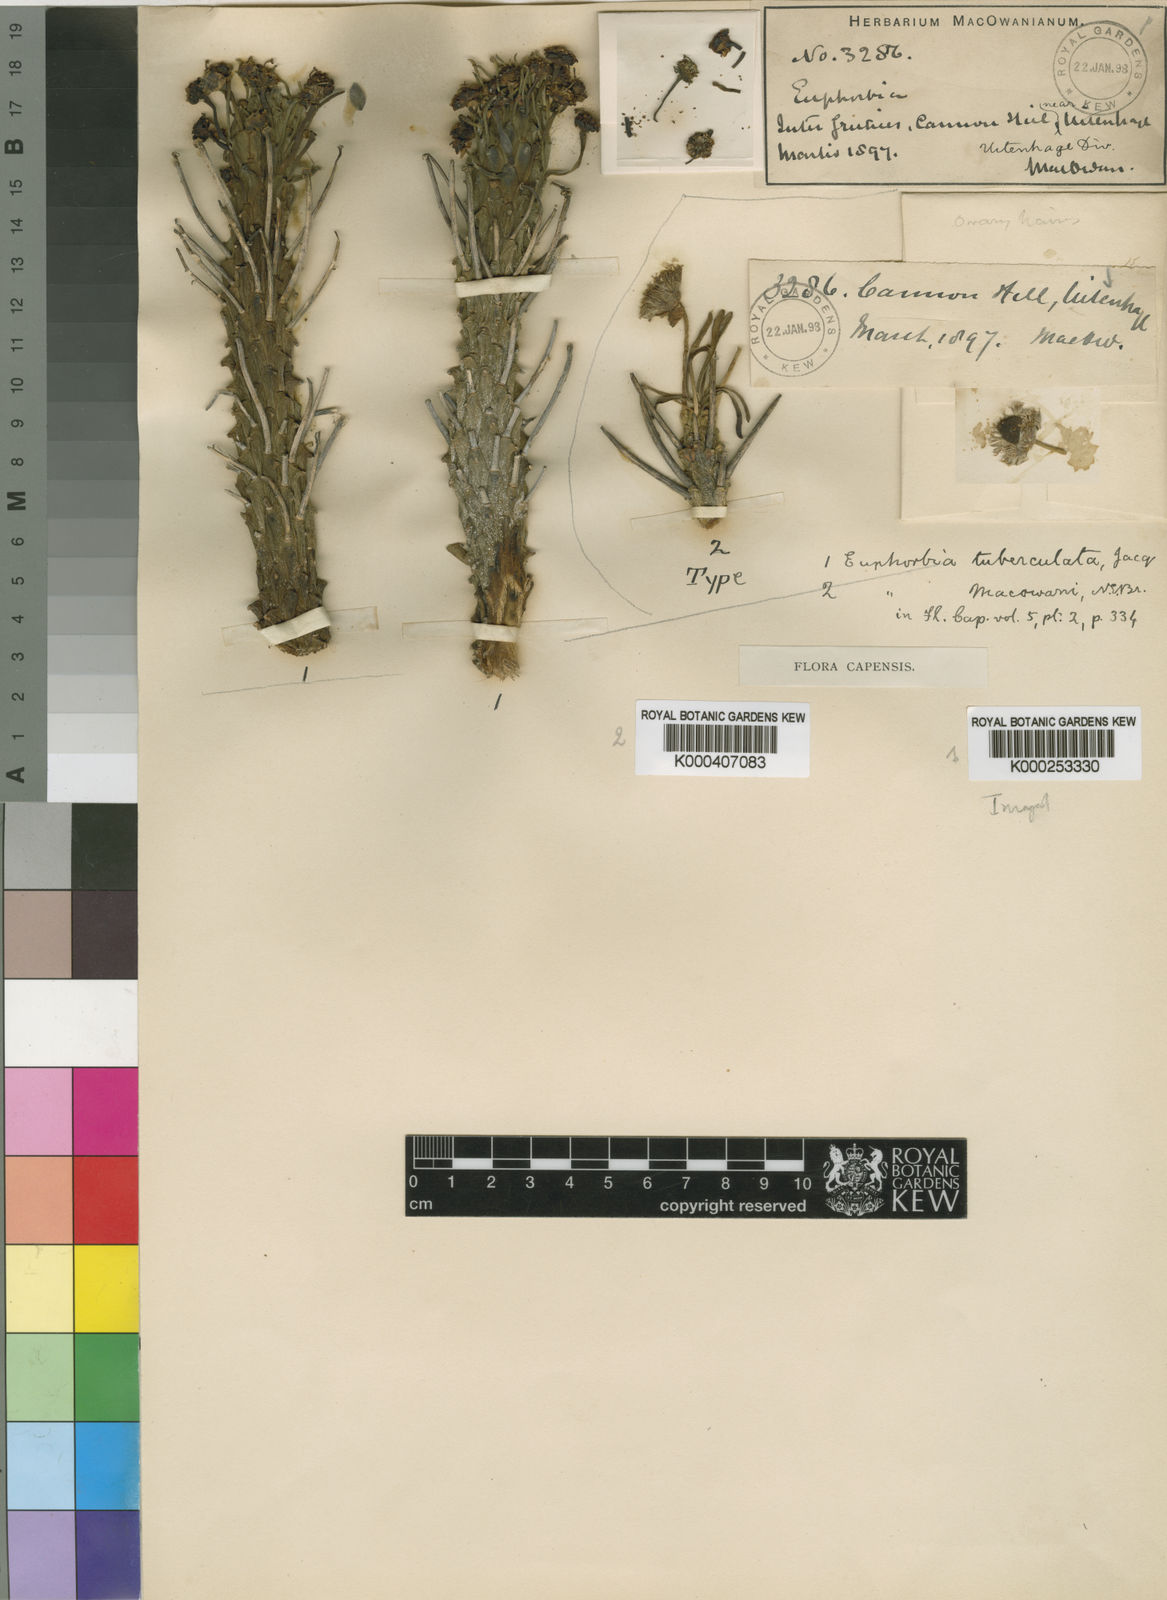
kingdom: Plantae
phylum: Tracheophyta
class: Magnoliopsida
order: Malpighiales
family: Euphorbiaceae
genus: Euphorbia
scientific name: Euphorbia caput-medusae
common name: Medusa's-head
